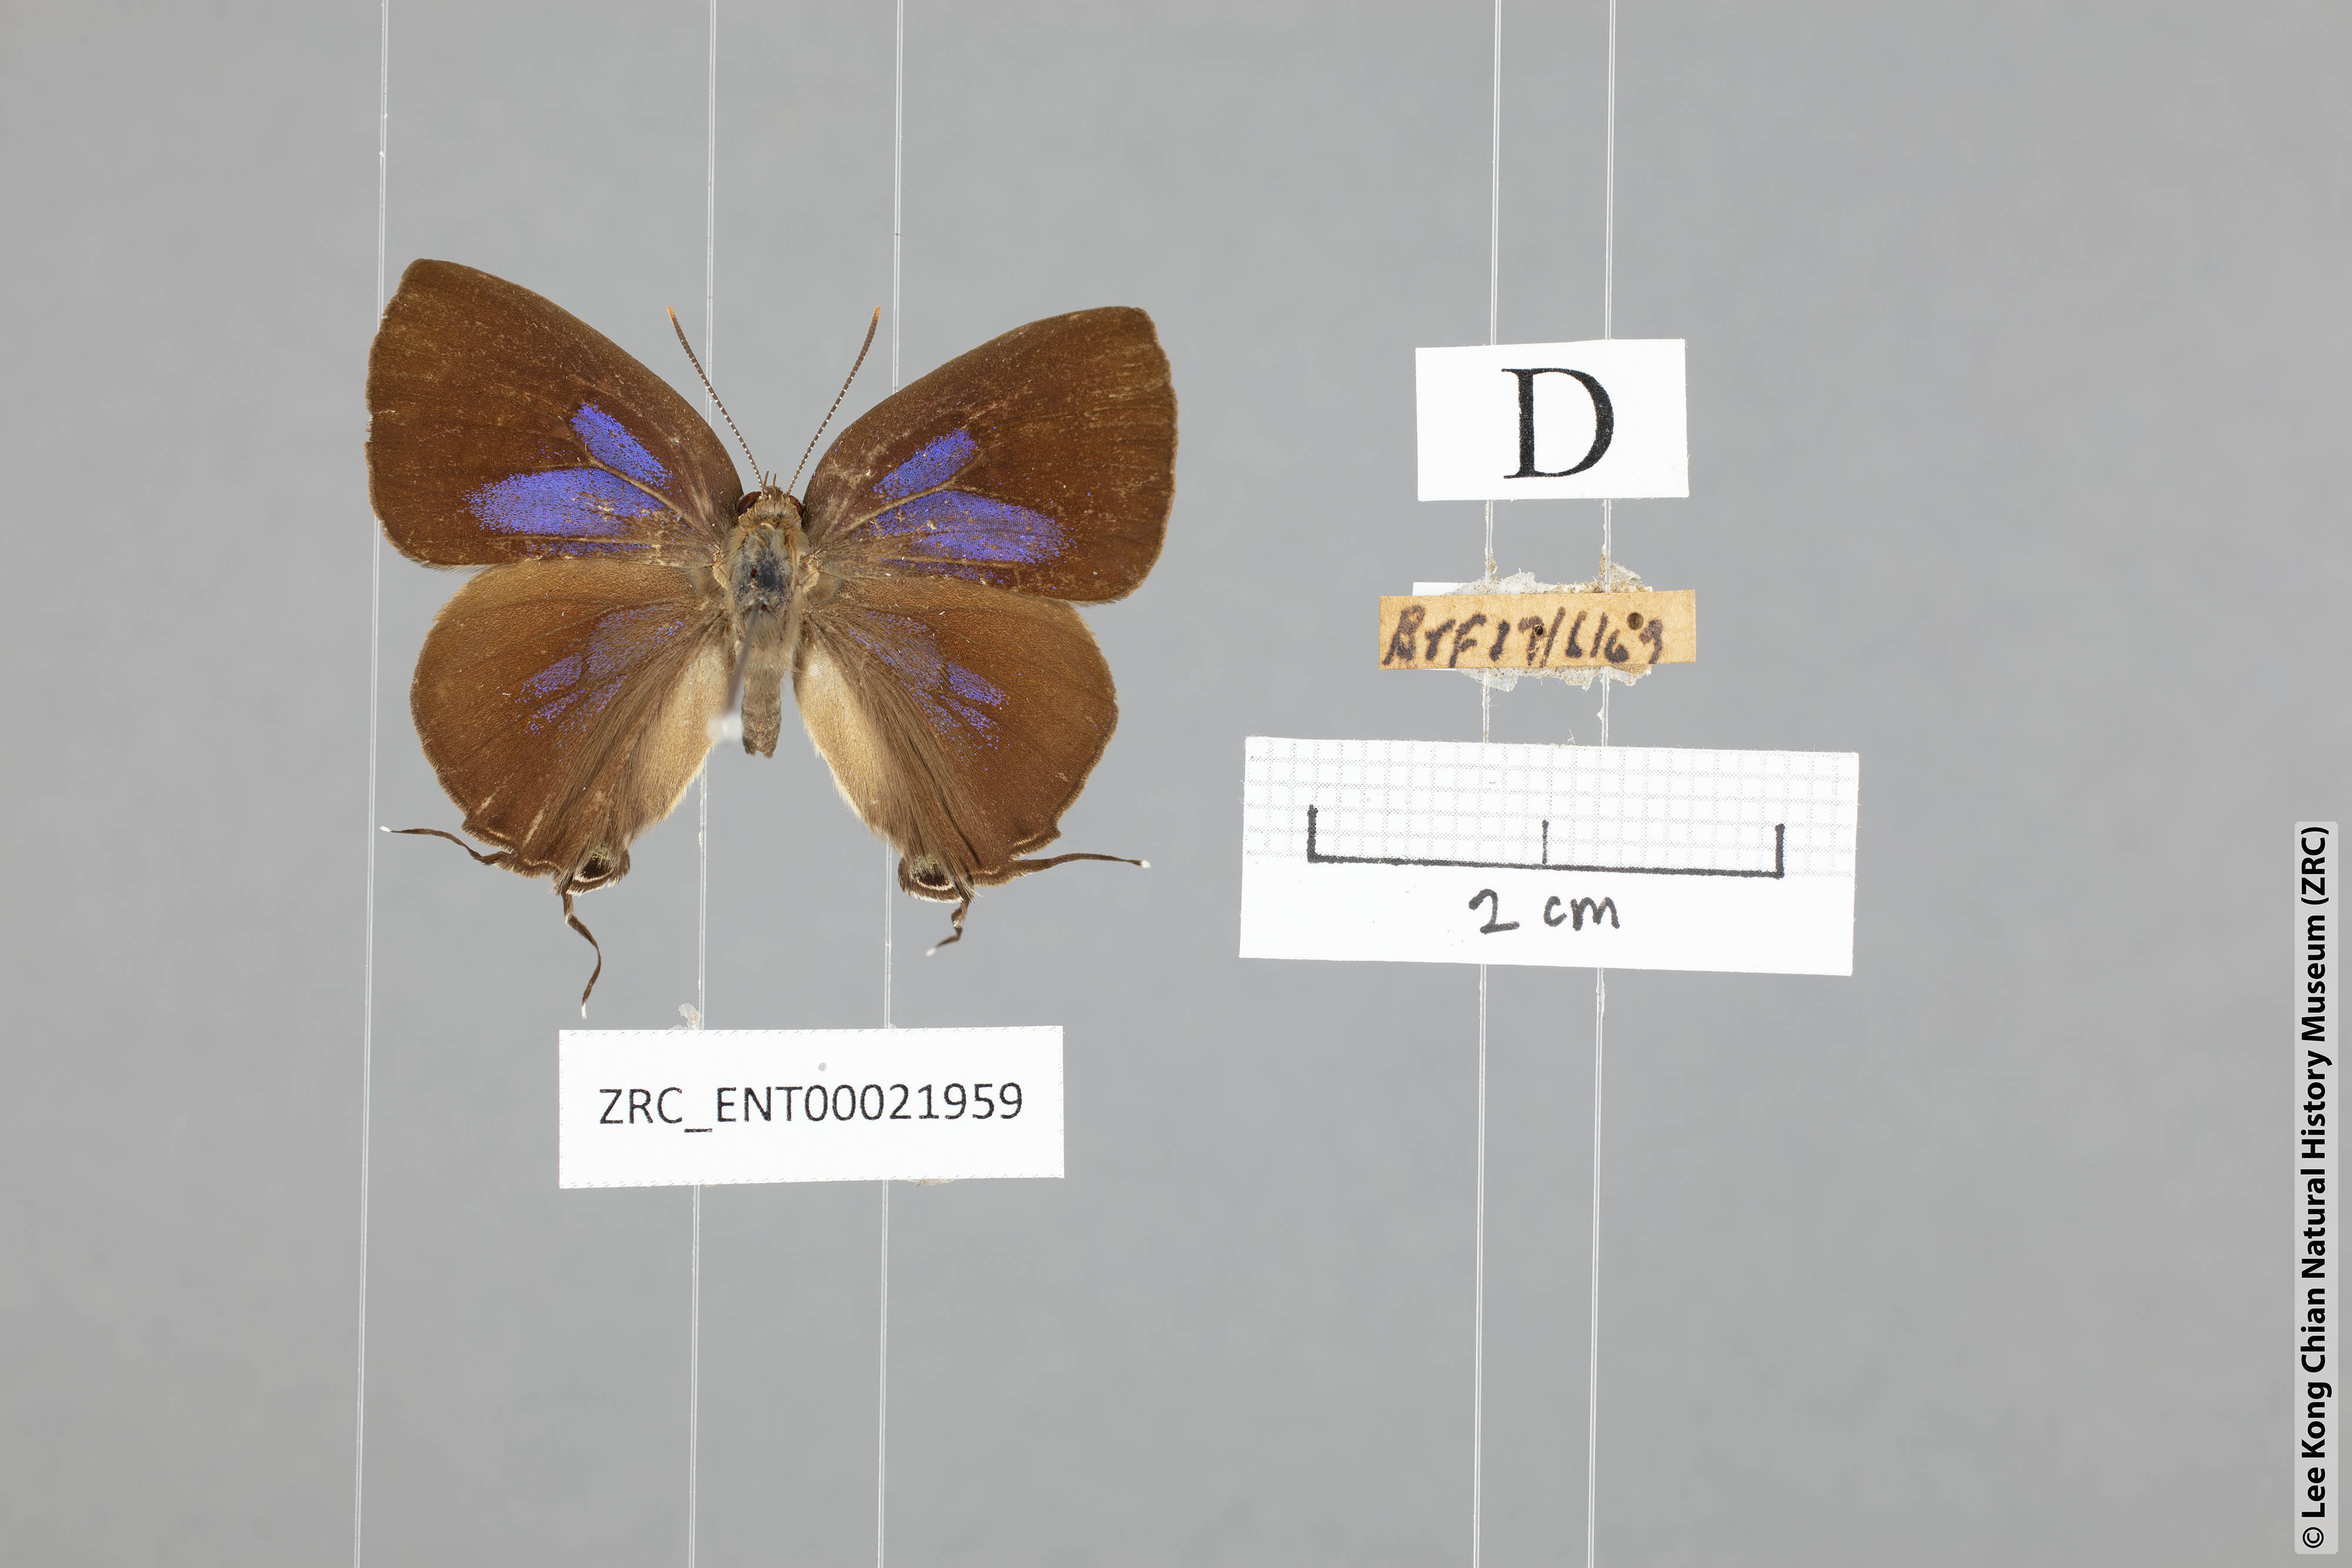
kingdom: Animalia
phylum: Arthropoda
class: Insecta
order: Lepidoptera
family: Lycaenidae
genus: Remelana
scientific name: Remelana jangala
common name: Chocolate royal
